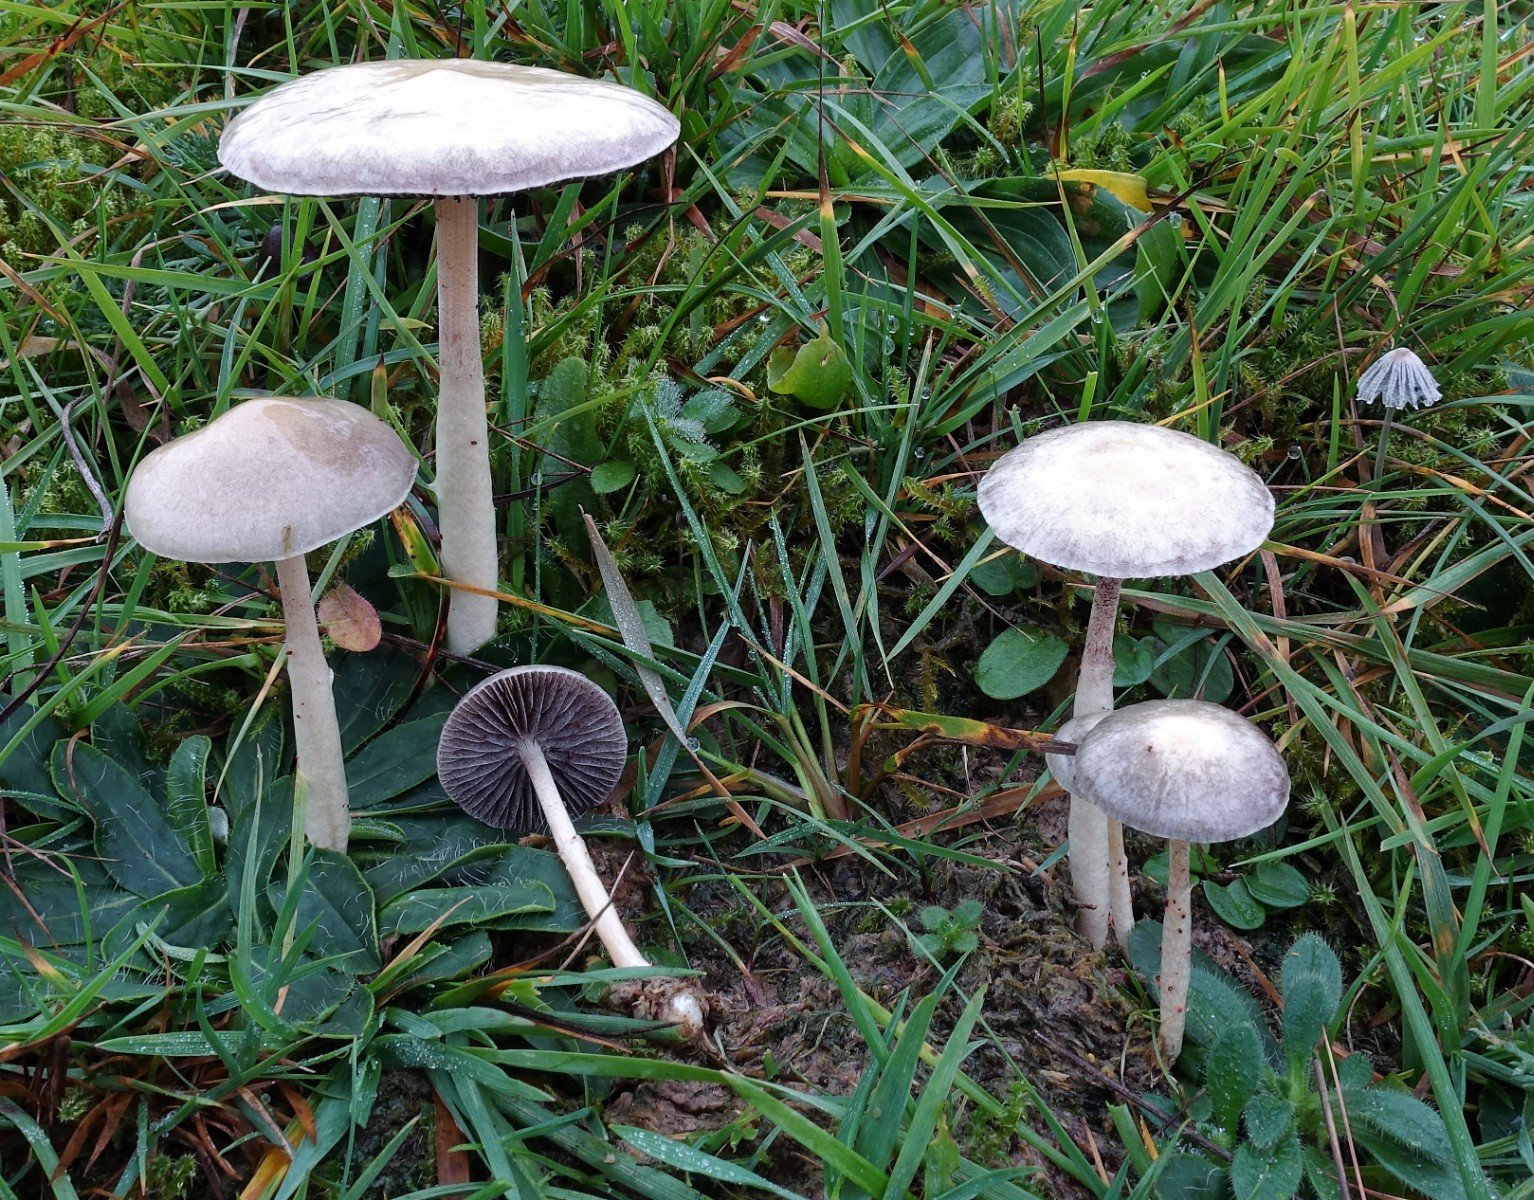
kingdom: Fungi
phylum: Basidiomycota
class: Agaricomycetes
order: Agaricales
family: Strophariaceae
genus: Protostropharia
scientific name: Protostropharia semiglobata
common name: halvkugleformet bredblad
